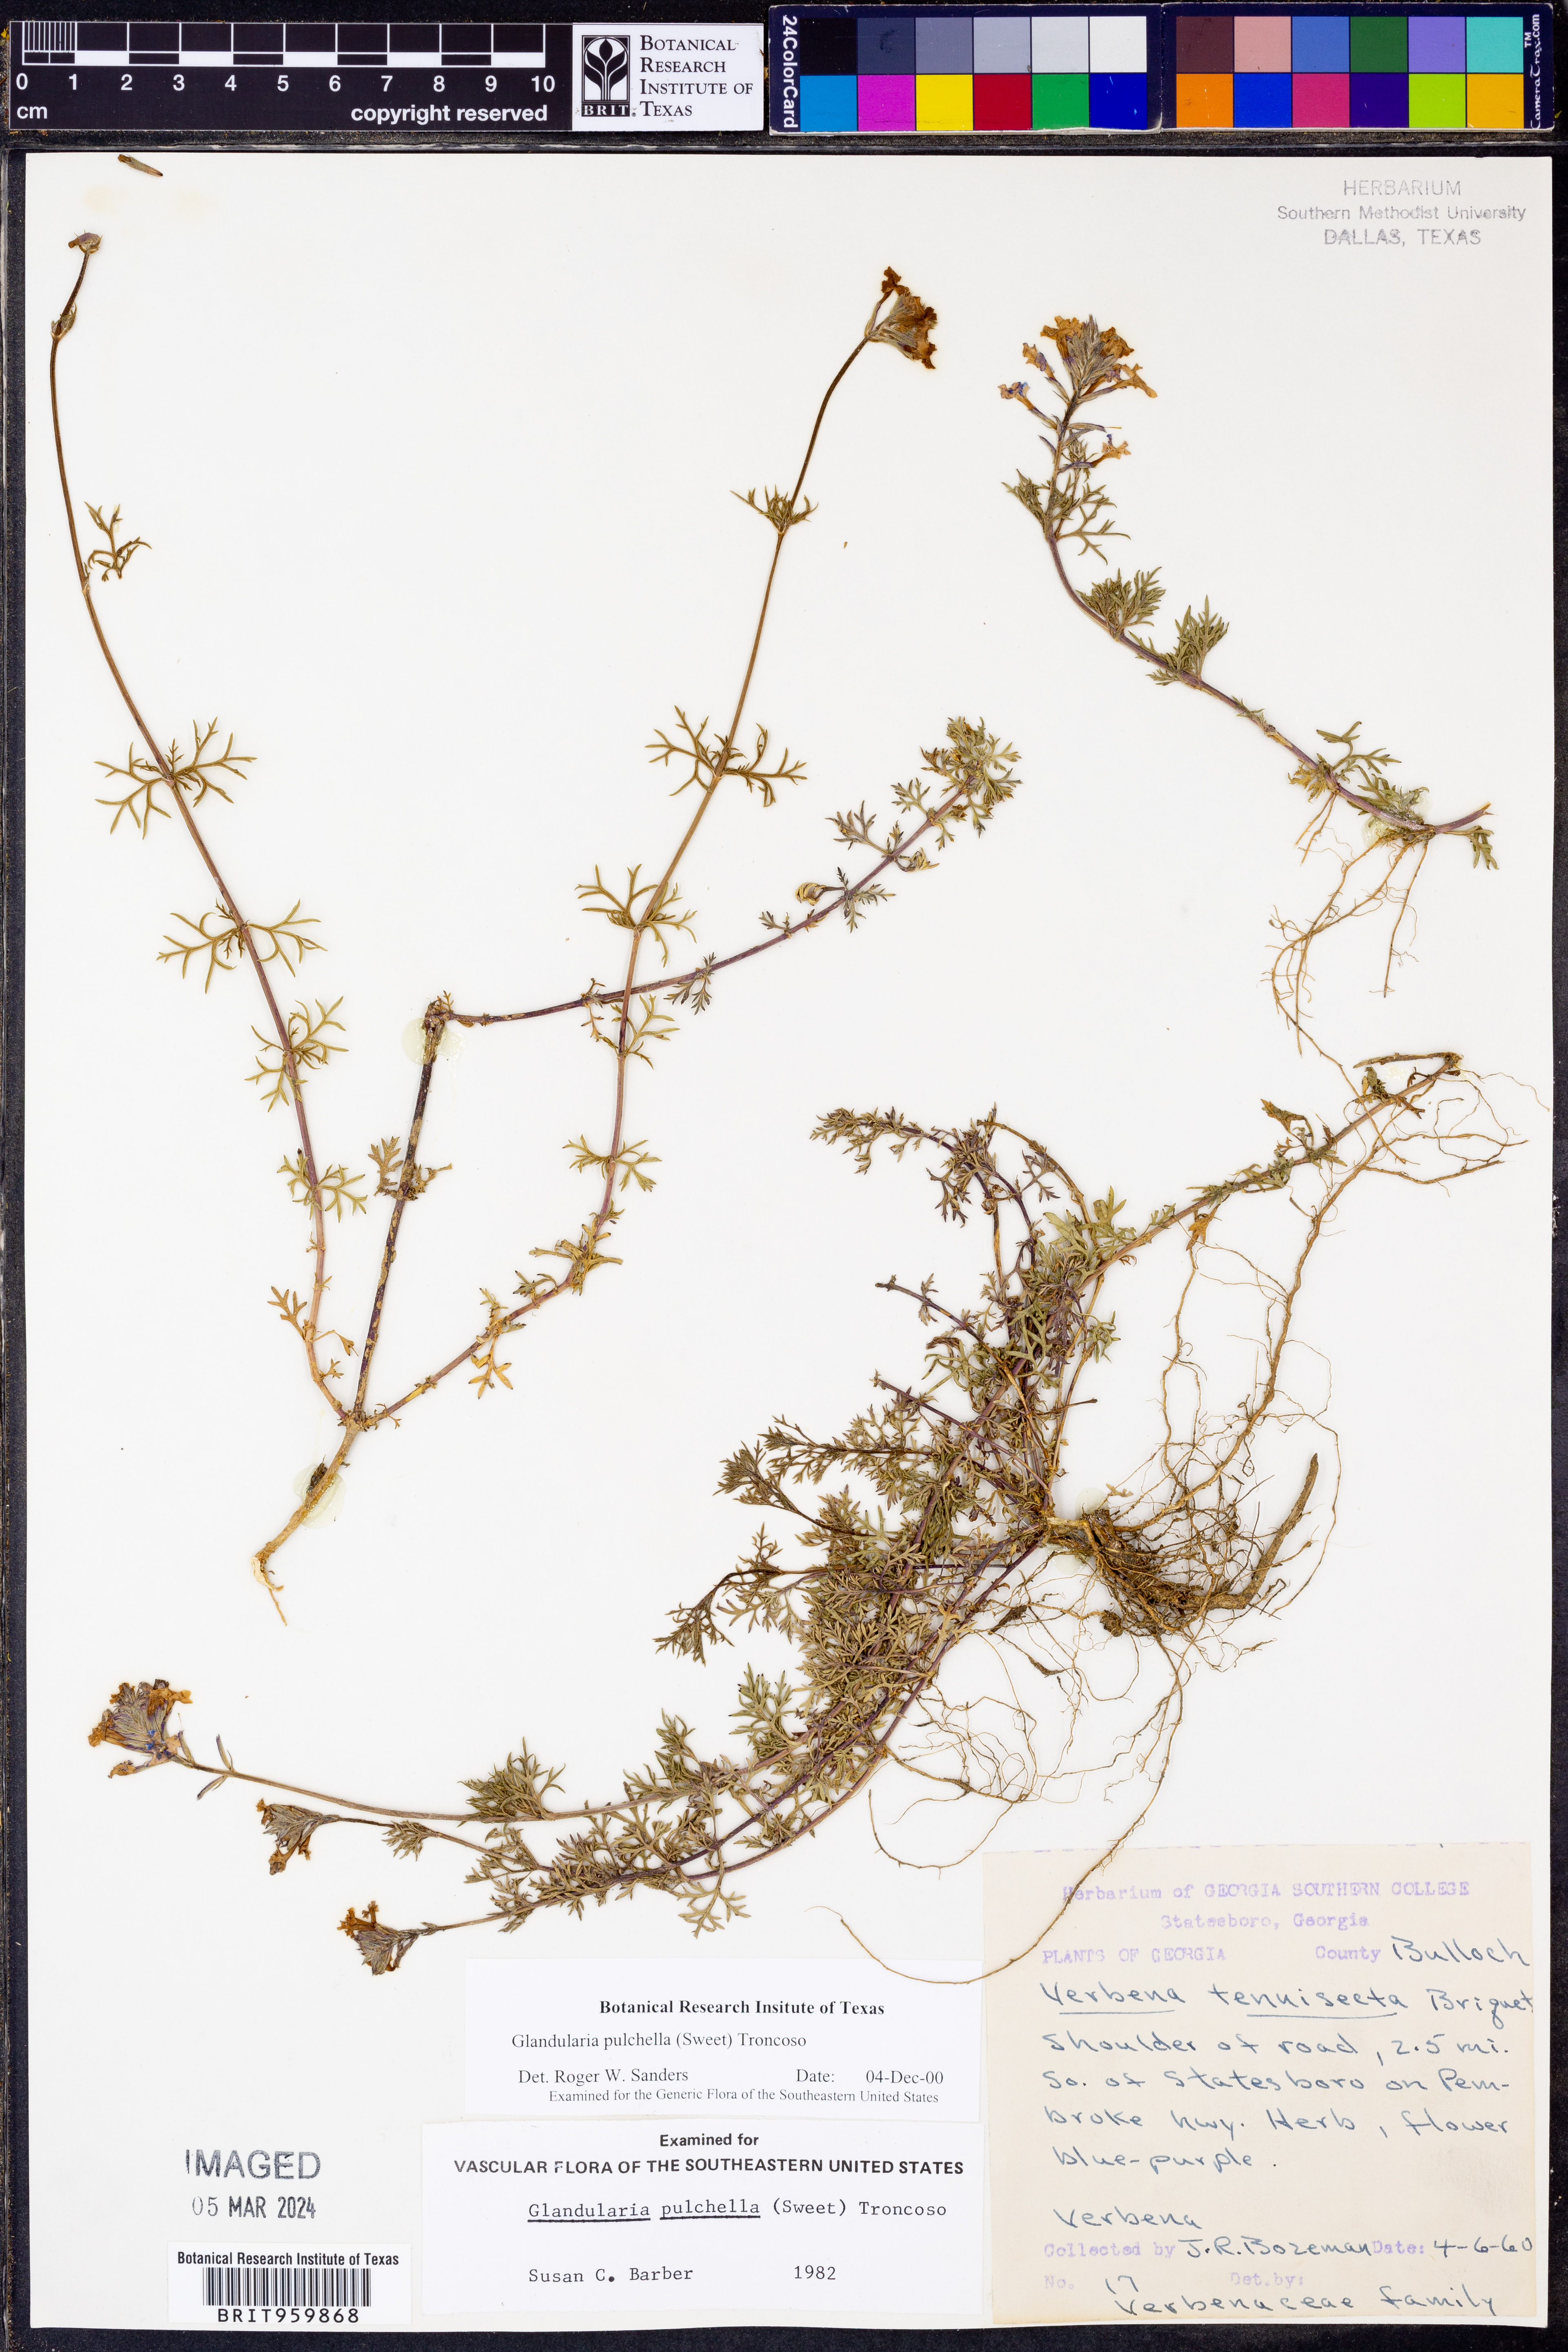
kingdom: Plantae
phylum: Tracheophyta
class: Magnoliopsida
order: Lamiales
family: Verbenaceae
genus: Verbena
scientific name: Verbena tenera
